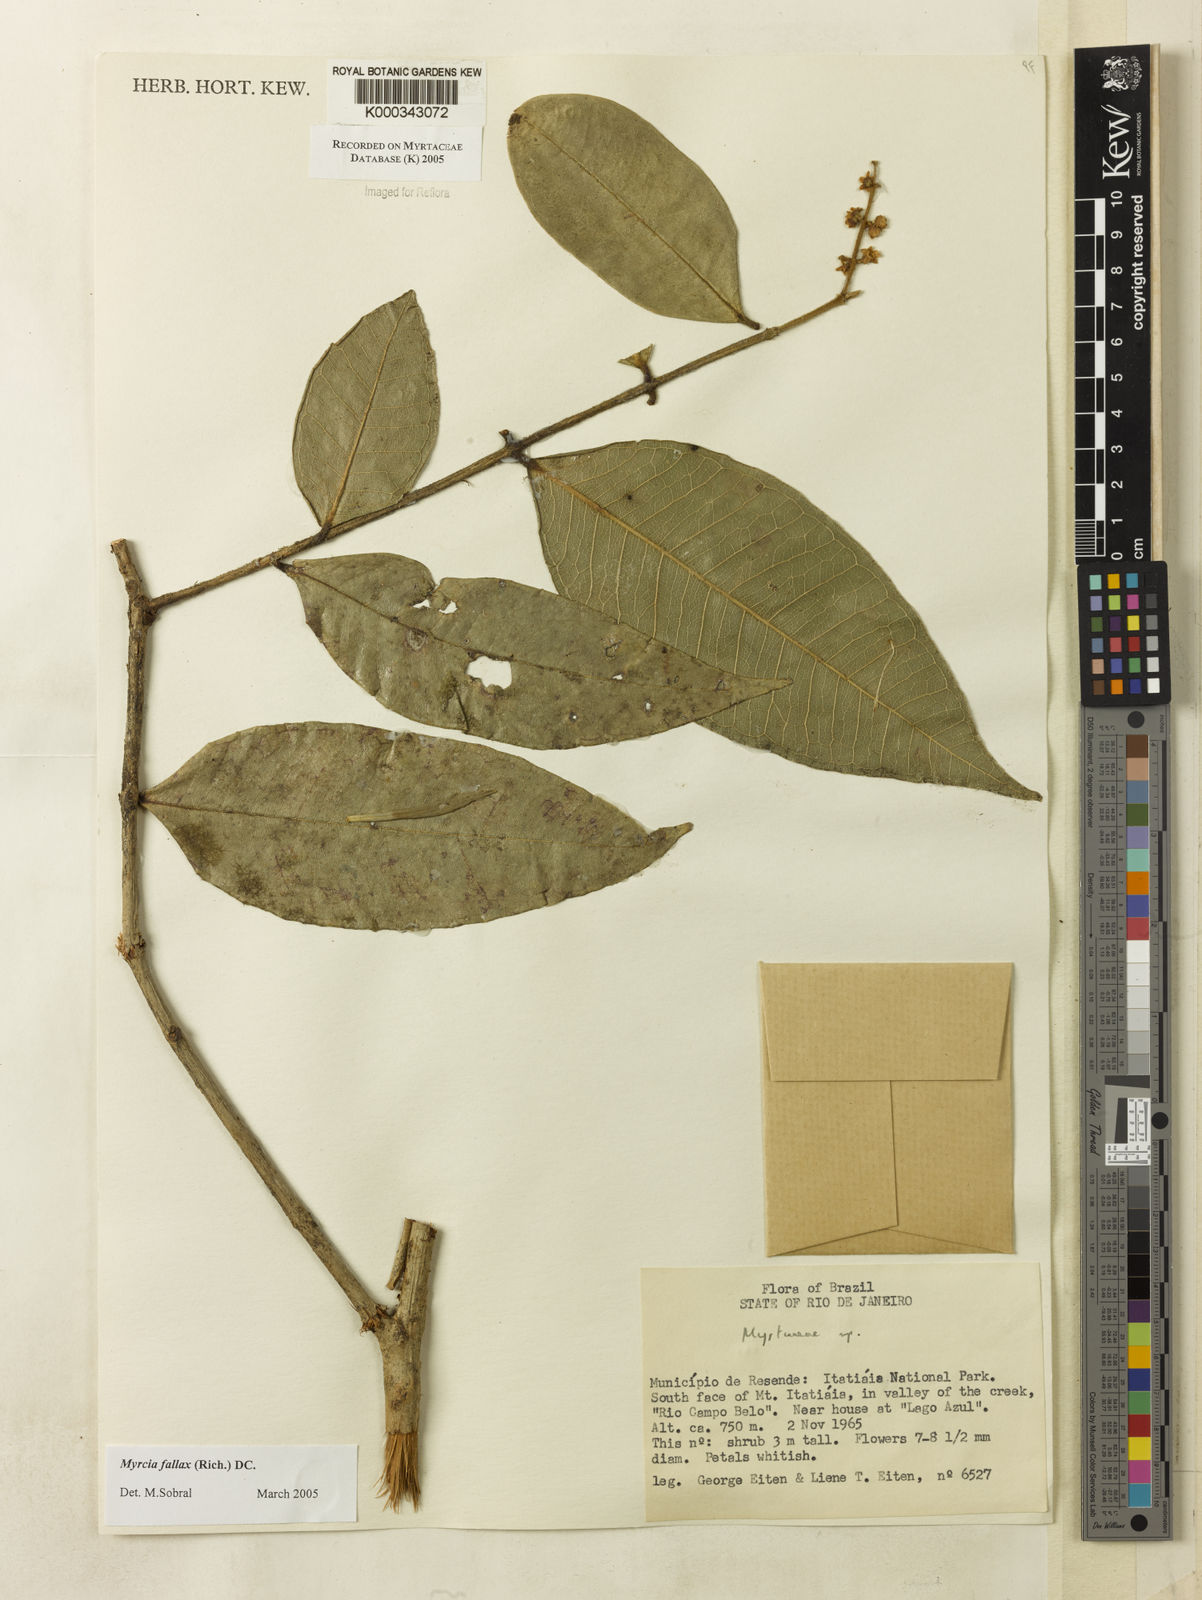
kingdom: Plantae
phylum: Tracheophyta
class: Magnoliopsida
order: Myrtales
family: Myrtaceae
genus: Myrcia
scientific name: Myrcia splendens
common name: Surinam cherry
